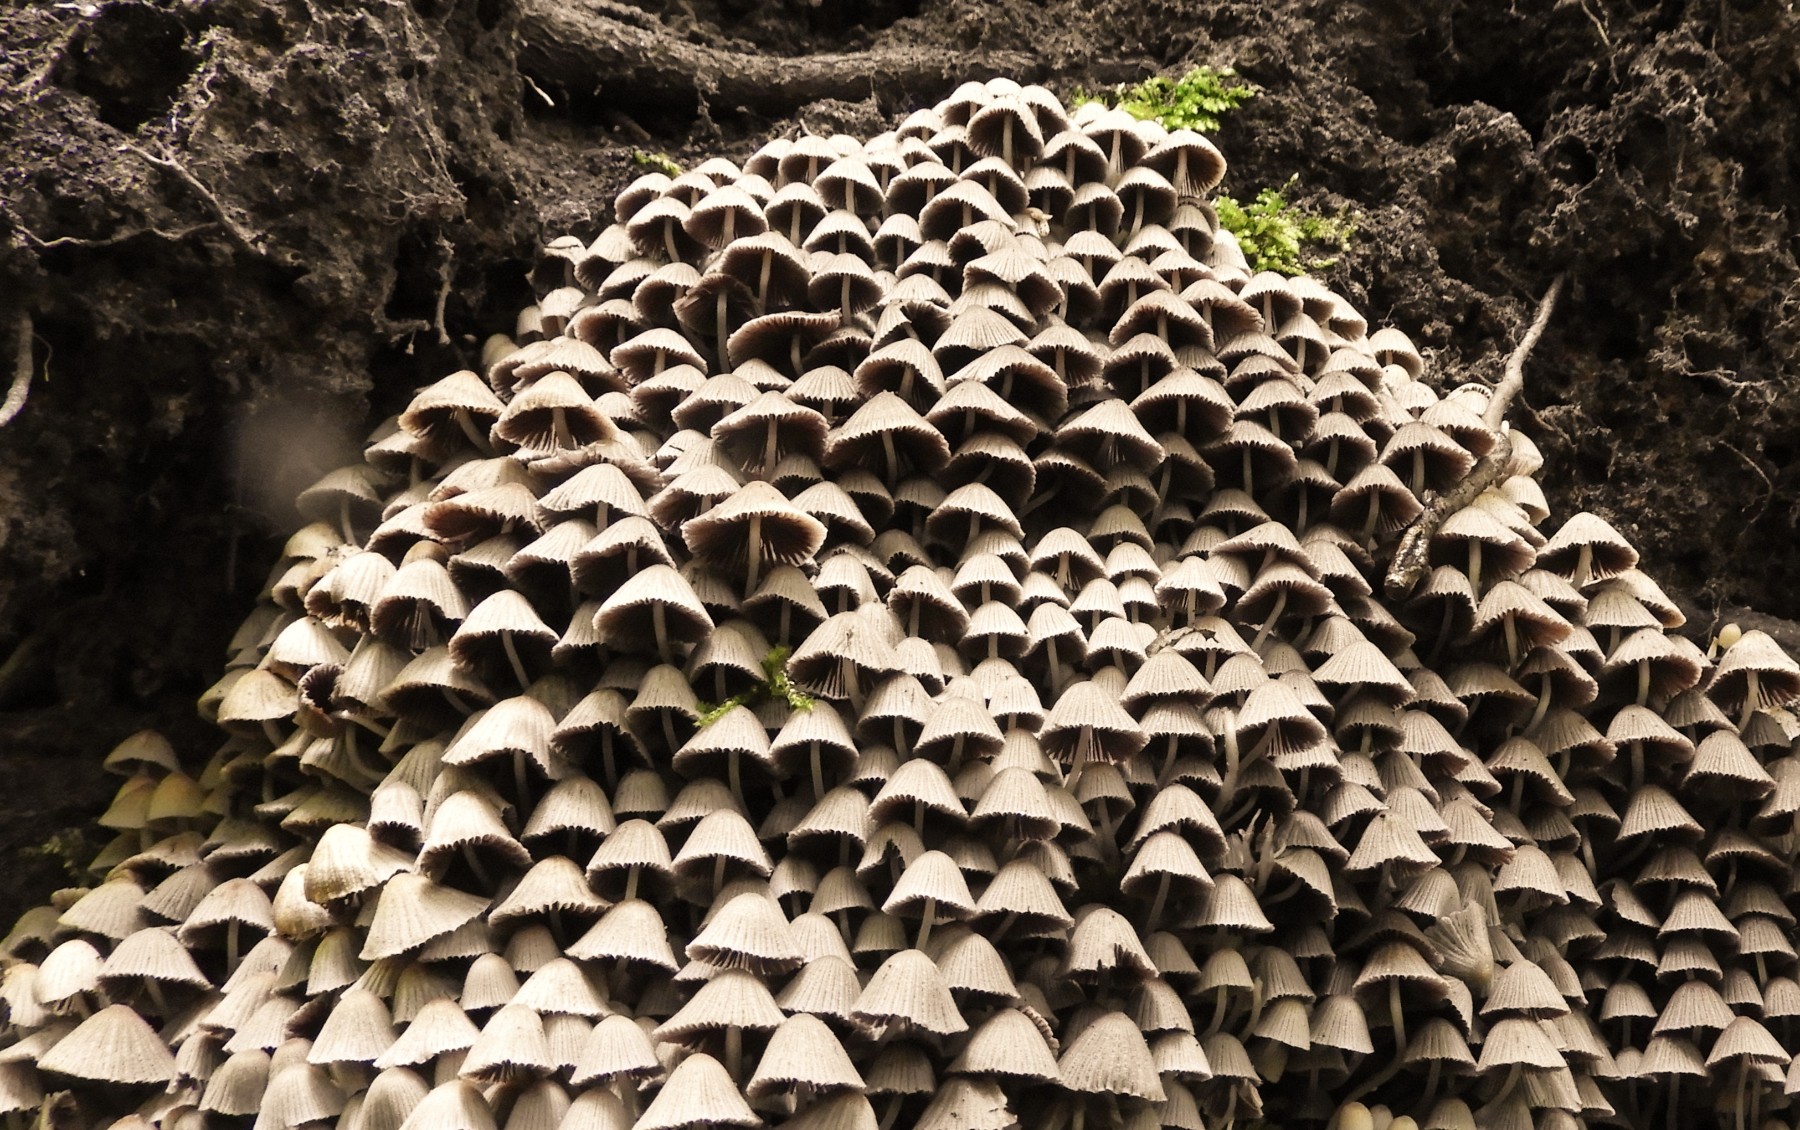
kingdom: Fungi
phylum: Basidiomycota
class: Agaricomycetes
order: Agaricales
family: Psathyrellaceae
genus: Coprinellus
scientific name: Coprinellus disseminatus
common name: bredsået blækhat
